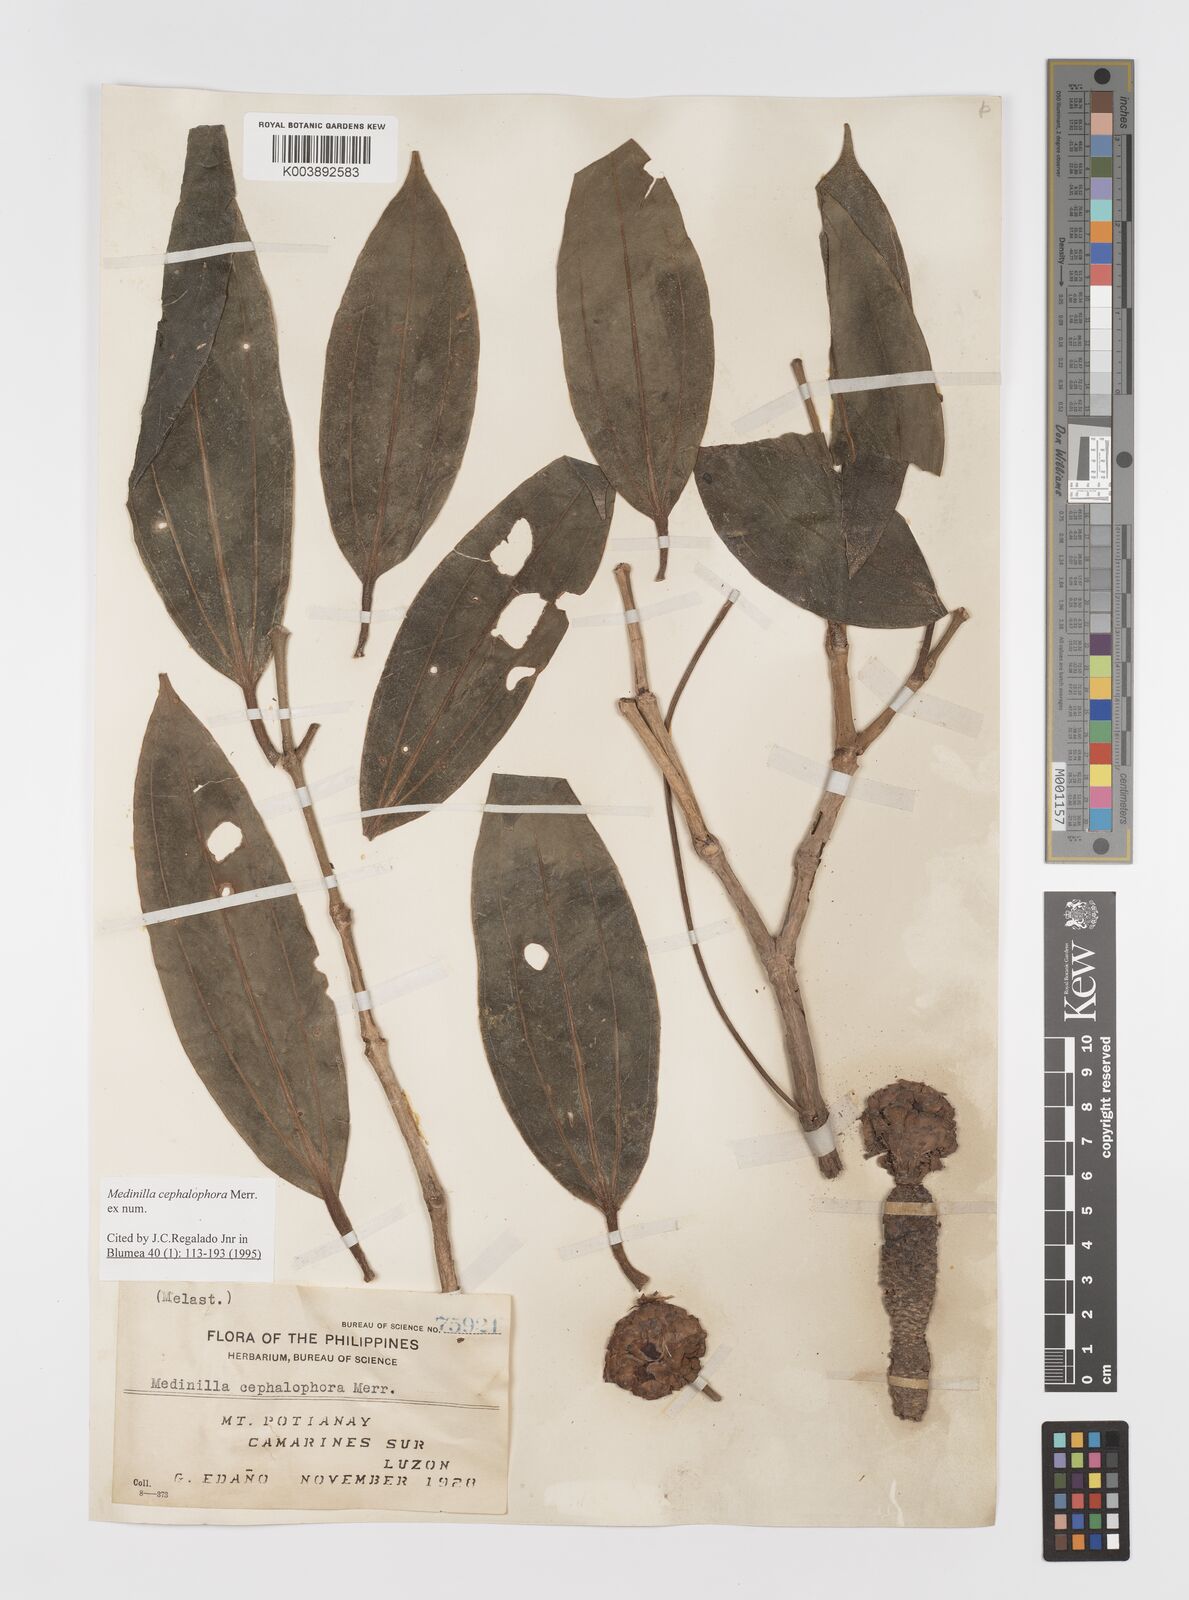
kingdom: Plantae
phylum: Tracheophyta
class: Magnoliopsida
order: Myrtales
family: Melastomataceae
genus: Medinilla
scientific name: Medinilla cephalophora
